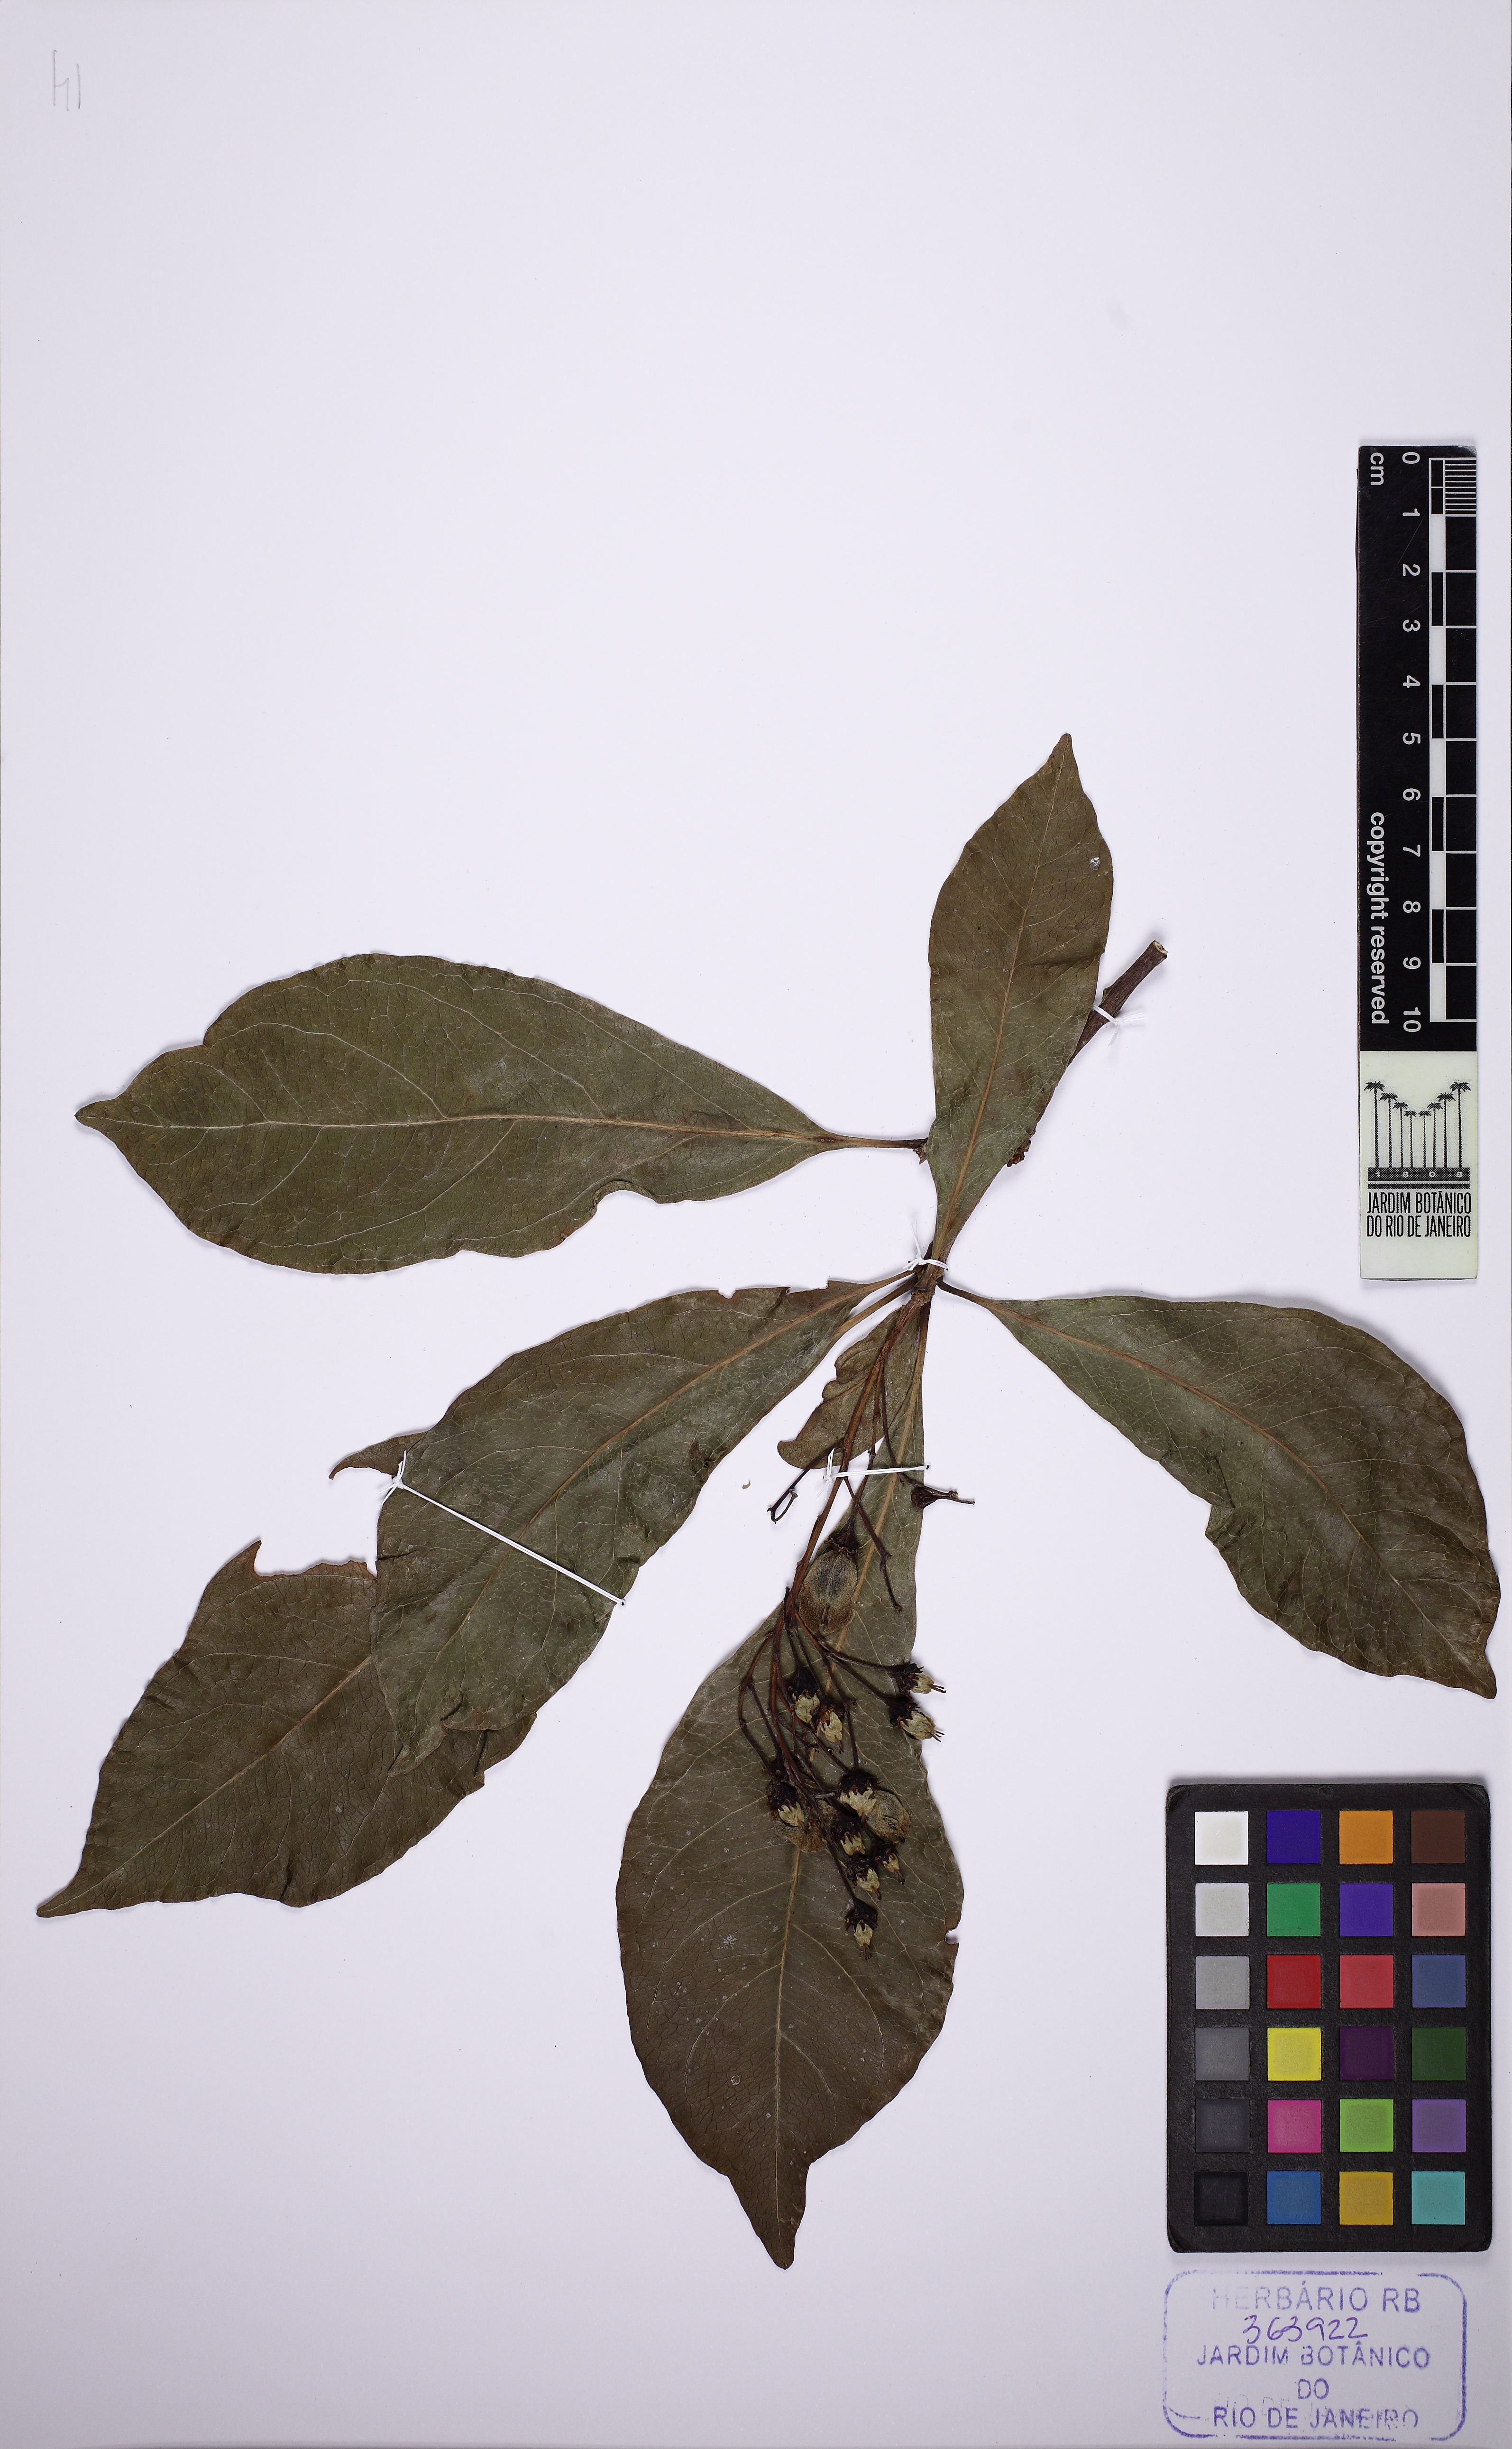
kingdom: Plantae
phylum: Tracheophyta
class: Magnoliopsida
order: Malpighiales
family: Malpighiaceae
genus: Barnebya
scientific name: Barnebya dispar
